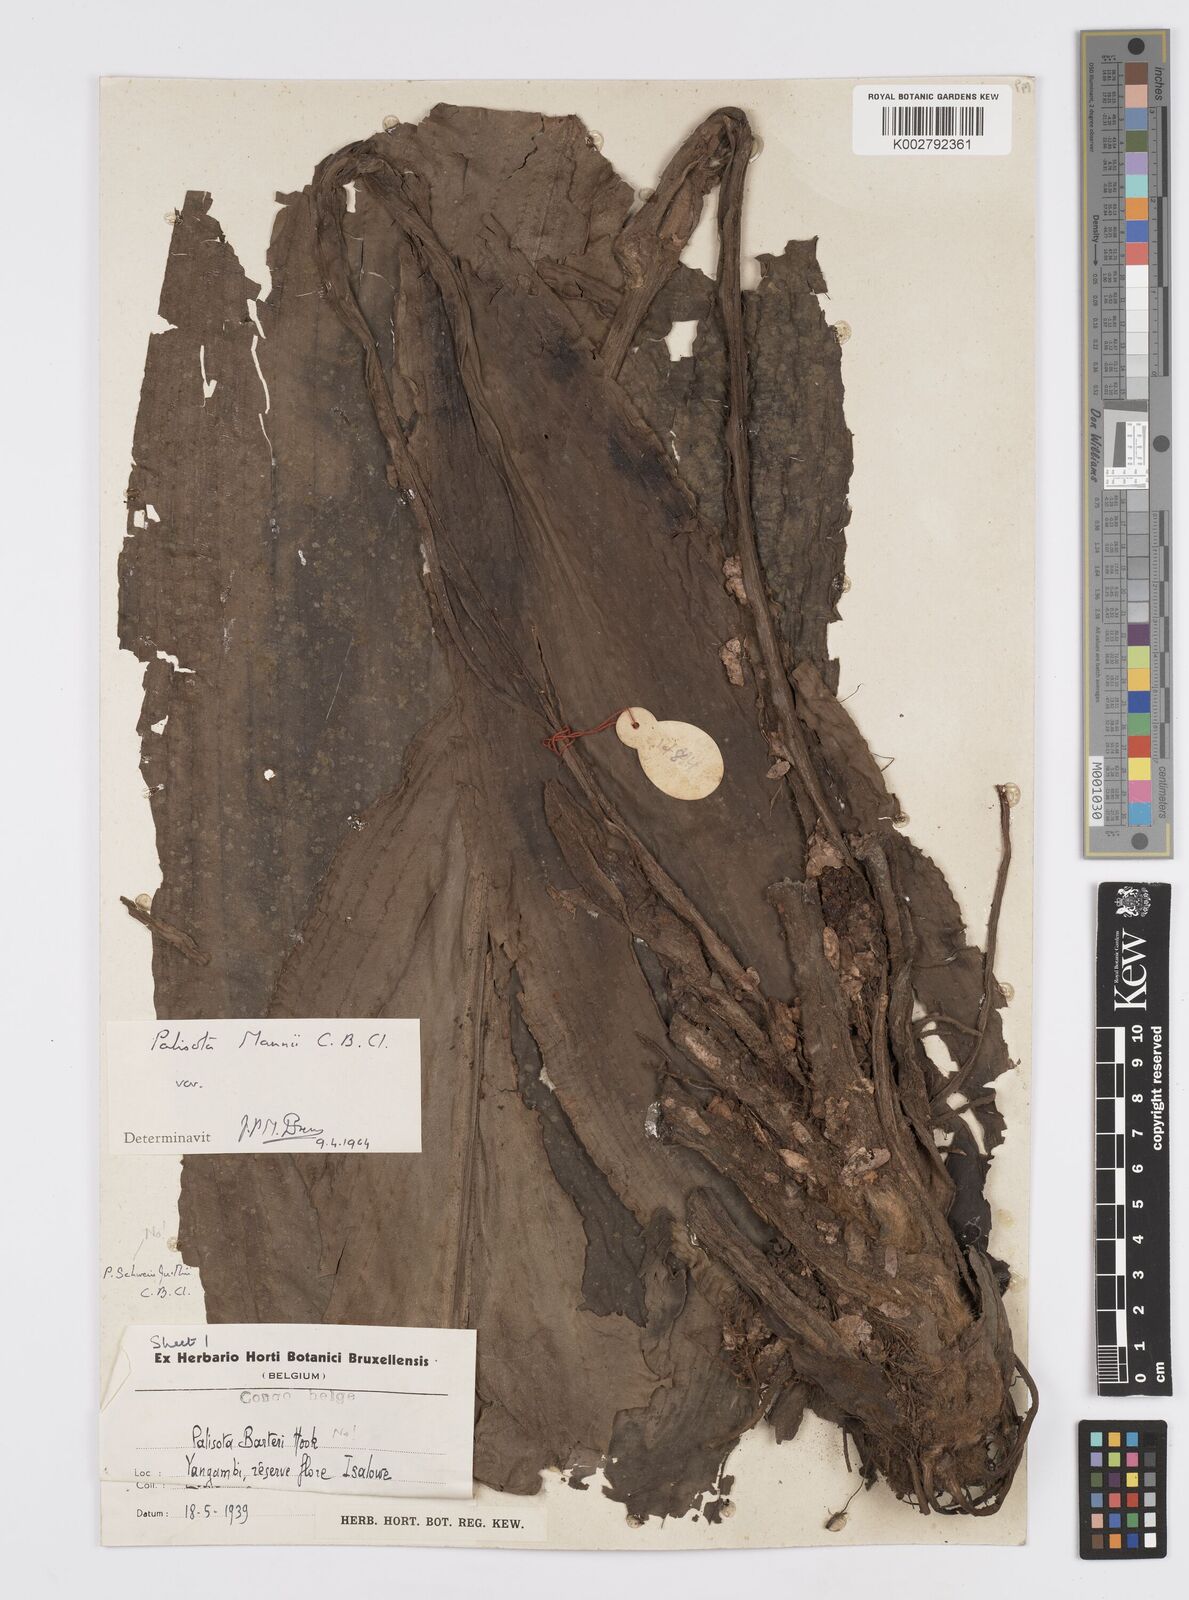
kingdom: Plantae
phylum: Tracheophyta
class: Liliopsida
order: Commelinales
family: Commelinaceae
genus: Palisota
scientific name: Palisota mannii
